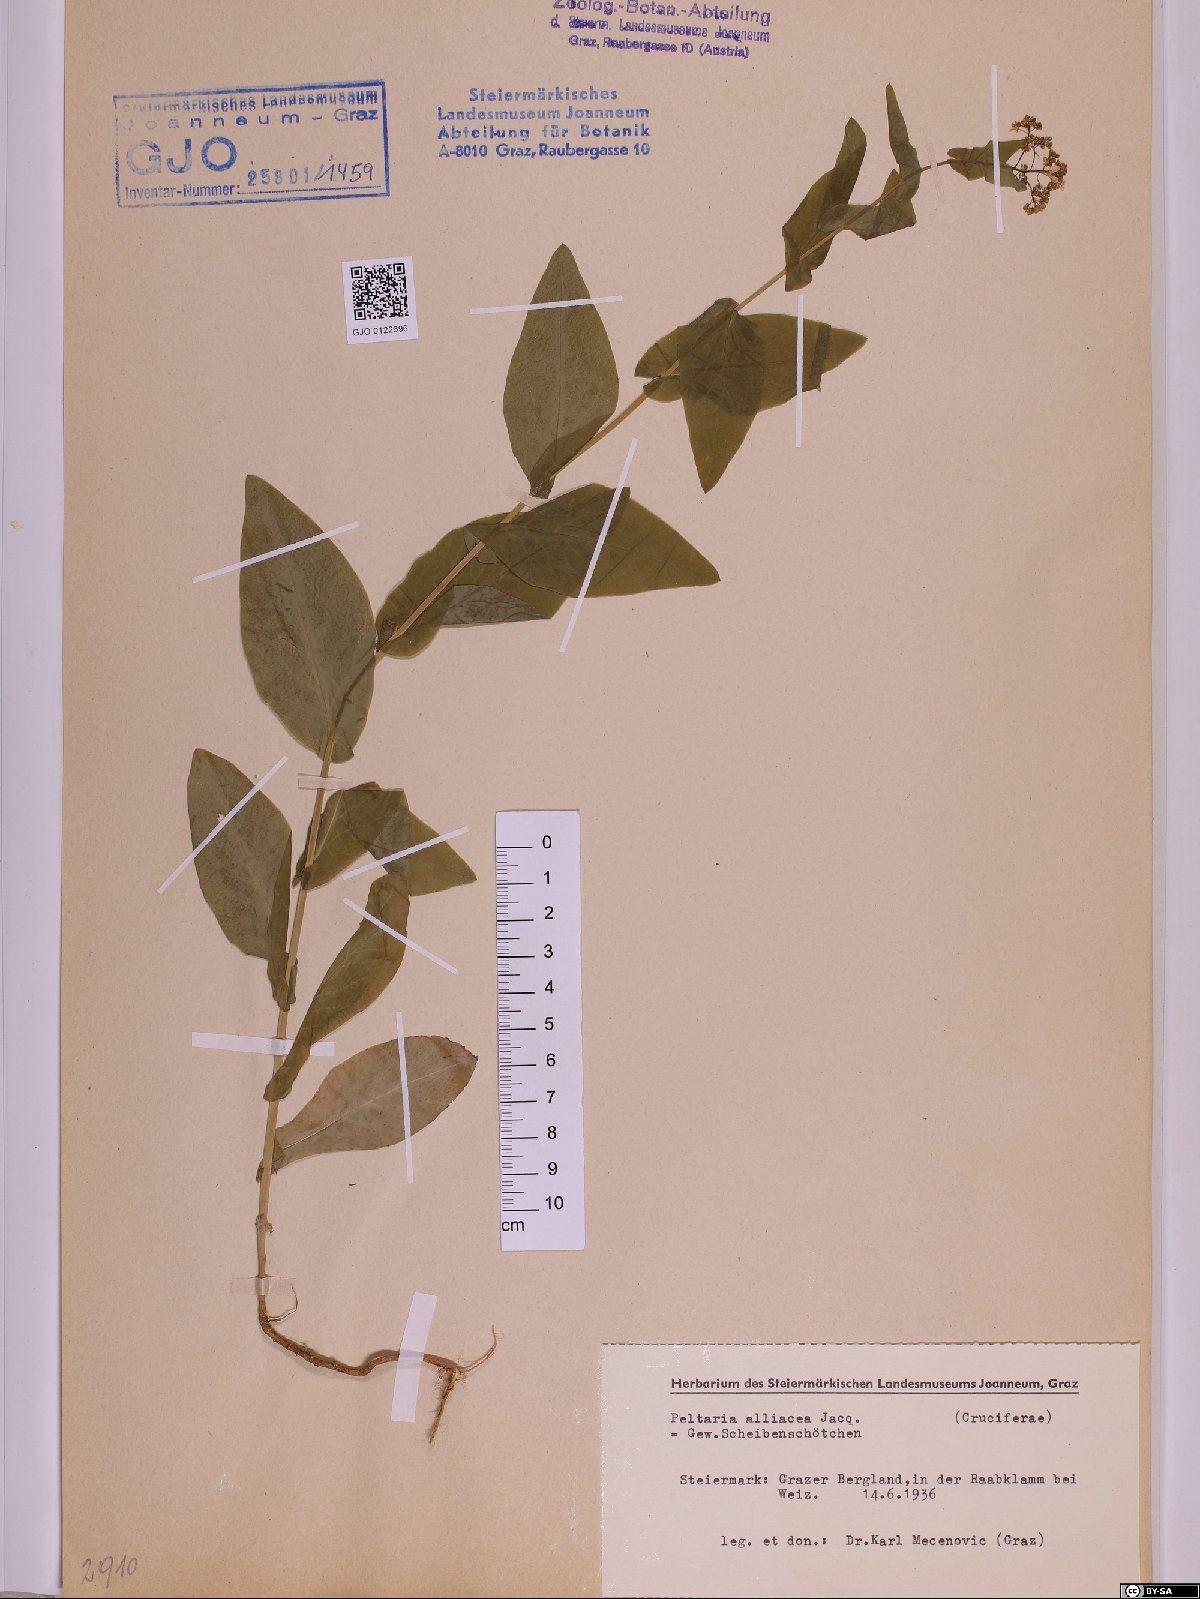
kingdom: Plantae
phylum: Tracheophyta
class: Magnoliopsida
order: Brassicales
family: Brassicaceae
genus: Peltaria
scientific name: Peltaria alliacea
